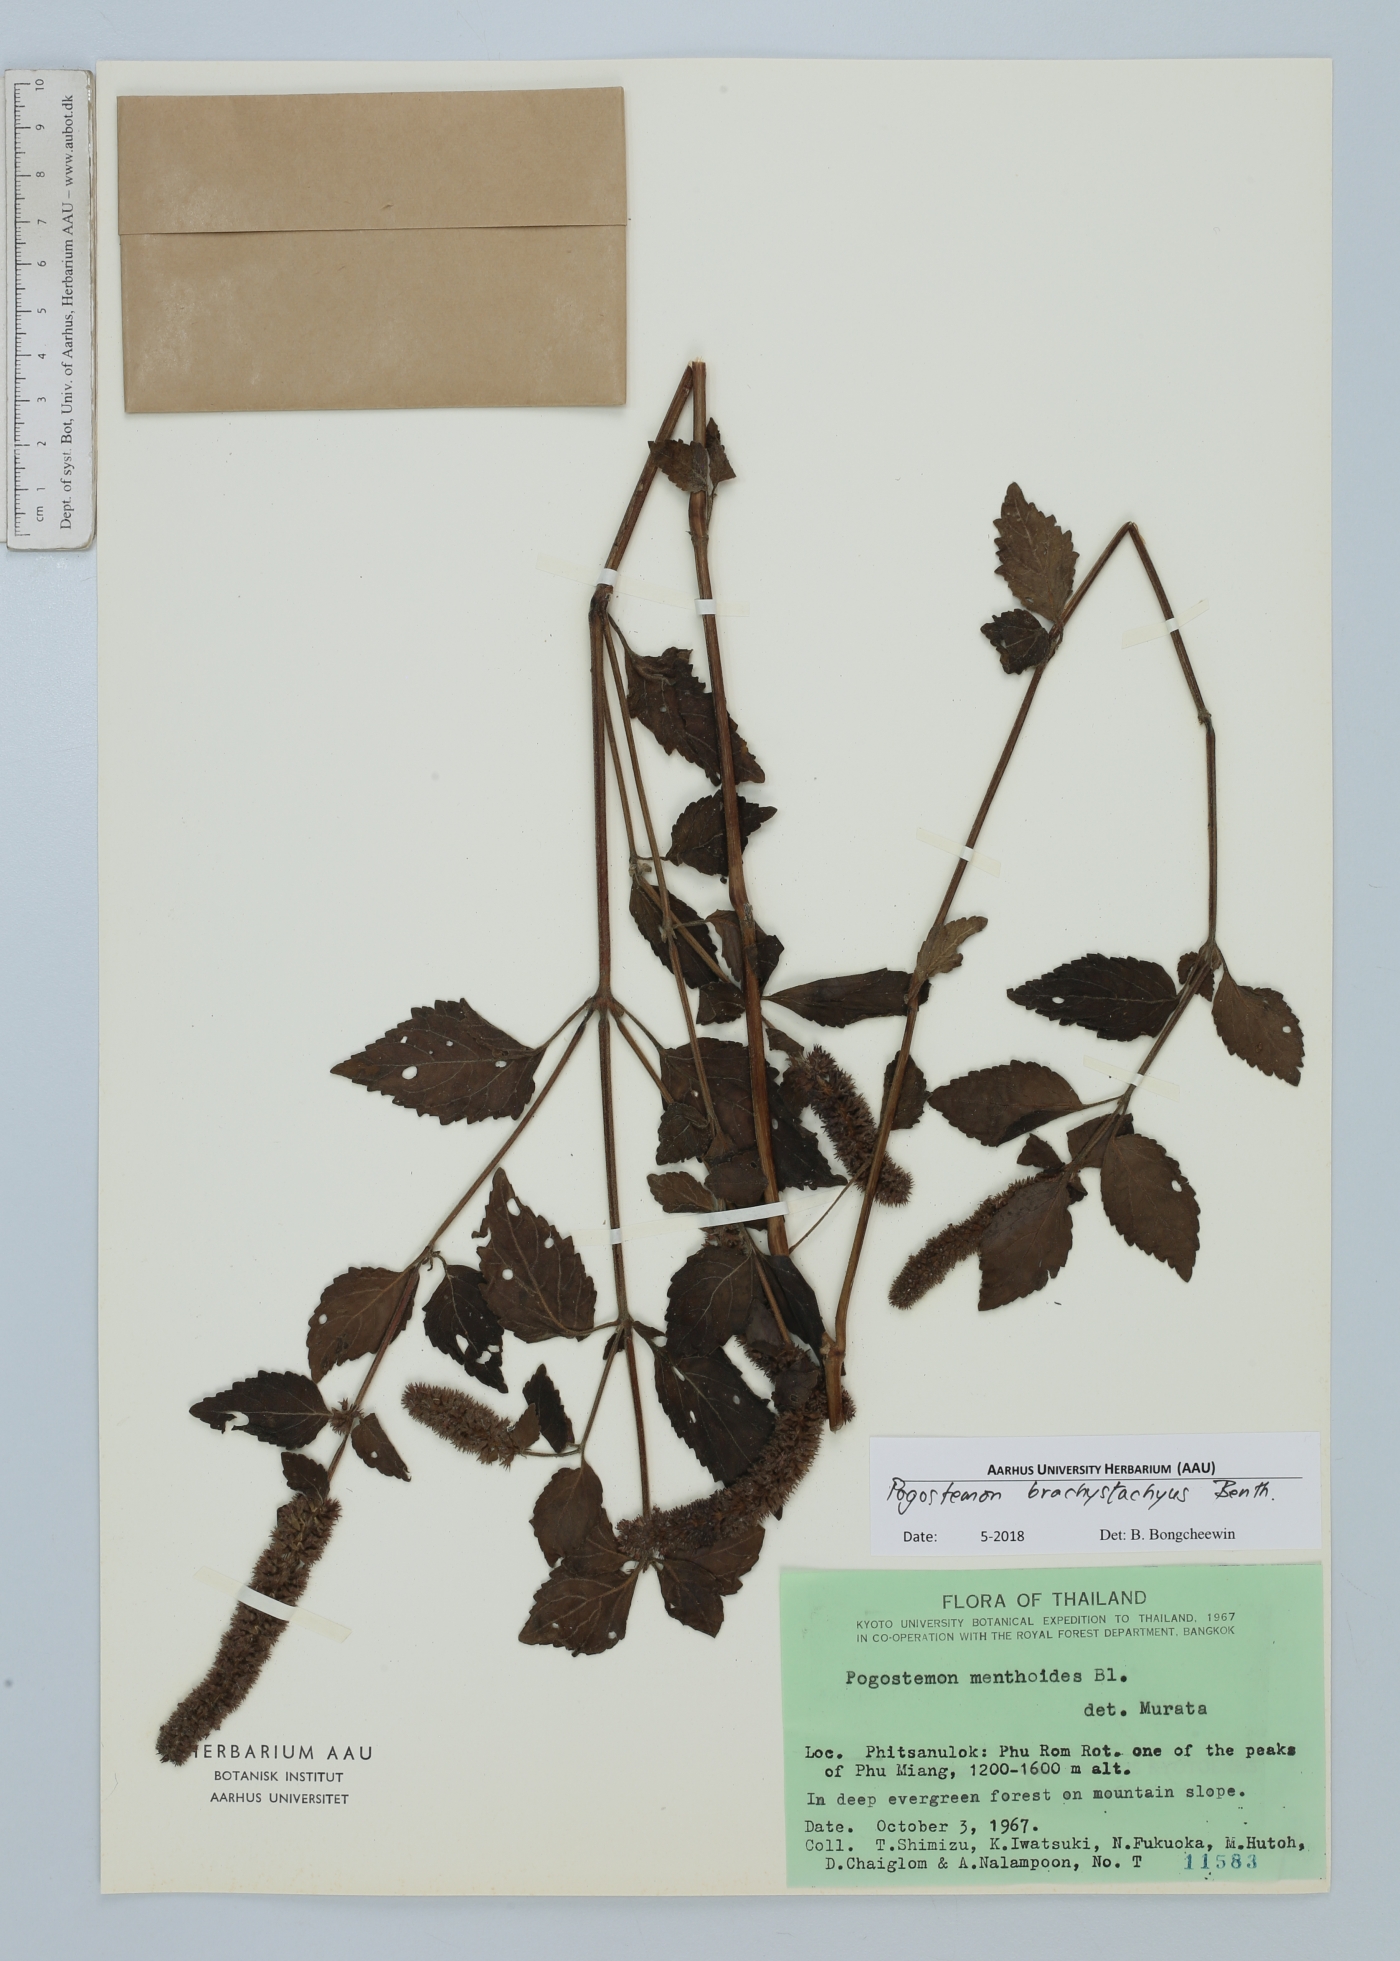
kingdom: Plantae
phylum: Tracheophyta
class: Magnoliopsida
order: Lamiales
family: Lamiaceae
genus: Pogostemon
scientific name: Pogostemon brachystachyus
